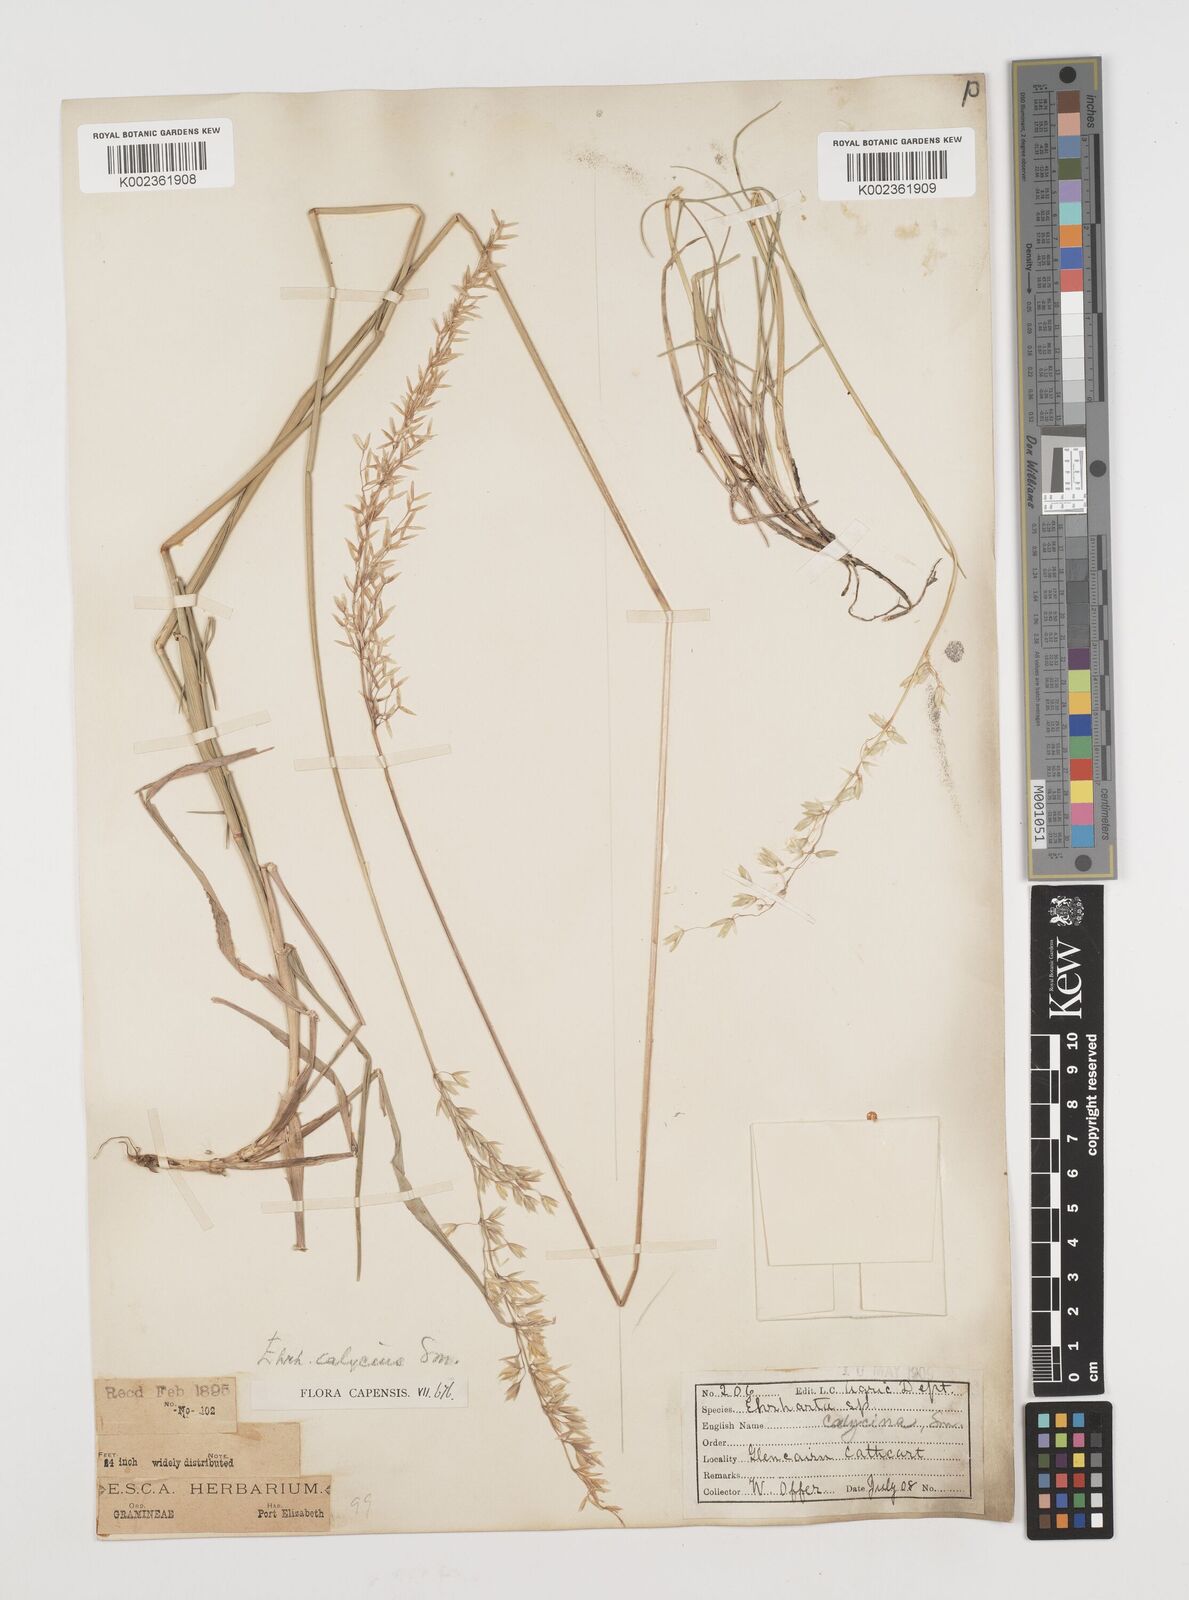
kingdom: Plantae
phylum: Tracheophyta
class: Liliopsida
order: Poales
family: Poaceae
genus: Ehrharta
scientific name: Ehrharta calycina
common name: Perennial veldtgrass
